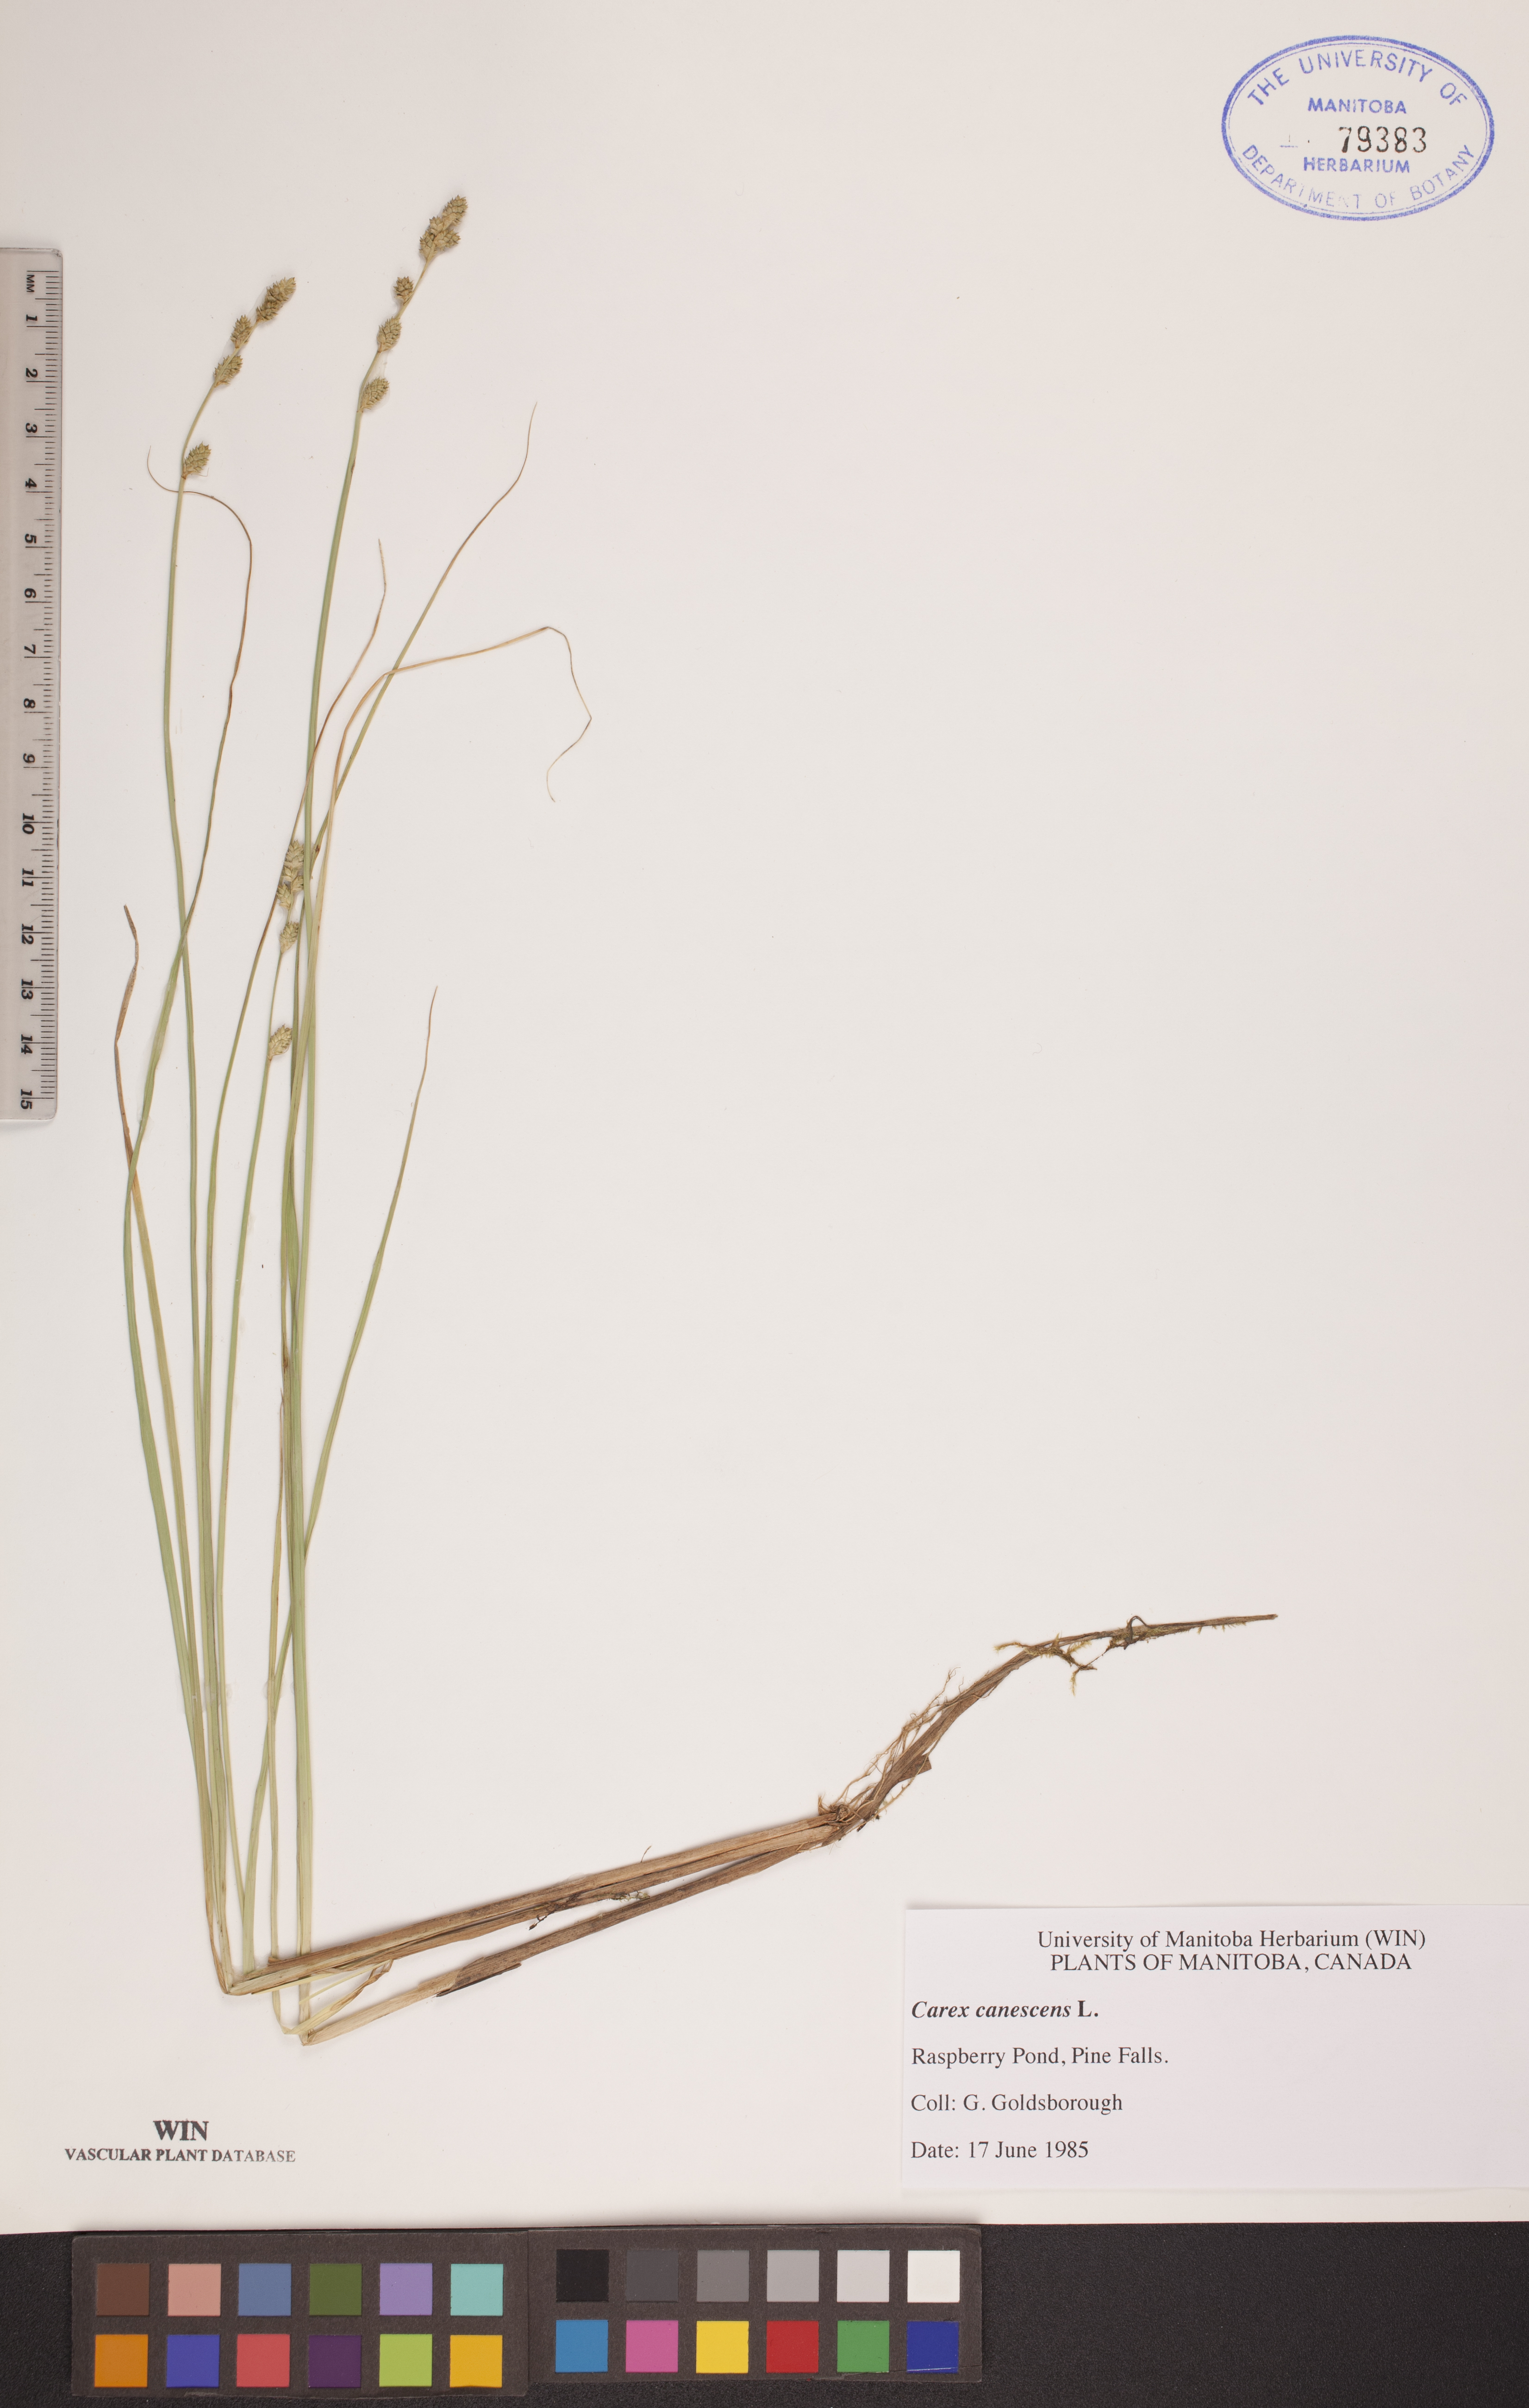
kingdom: Plantae
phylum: Tracheophyta
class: Liliopsida
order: Poales
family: Cyperaceae
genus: Carex
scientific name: Carex canescens
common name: White sedge
